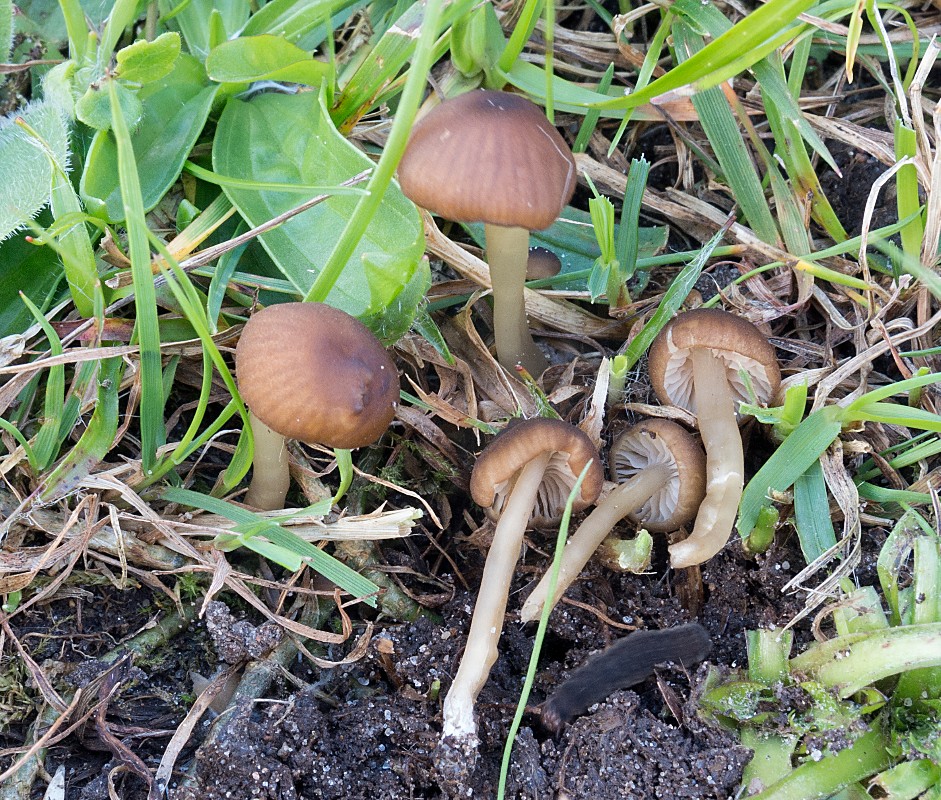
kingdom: Fungi
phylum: Basidiomycota
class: Agaricomycetes
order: Agaricales
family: Entolomataceae
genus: Entoloma
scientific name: Entoloma olivaceotinctum
